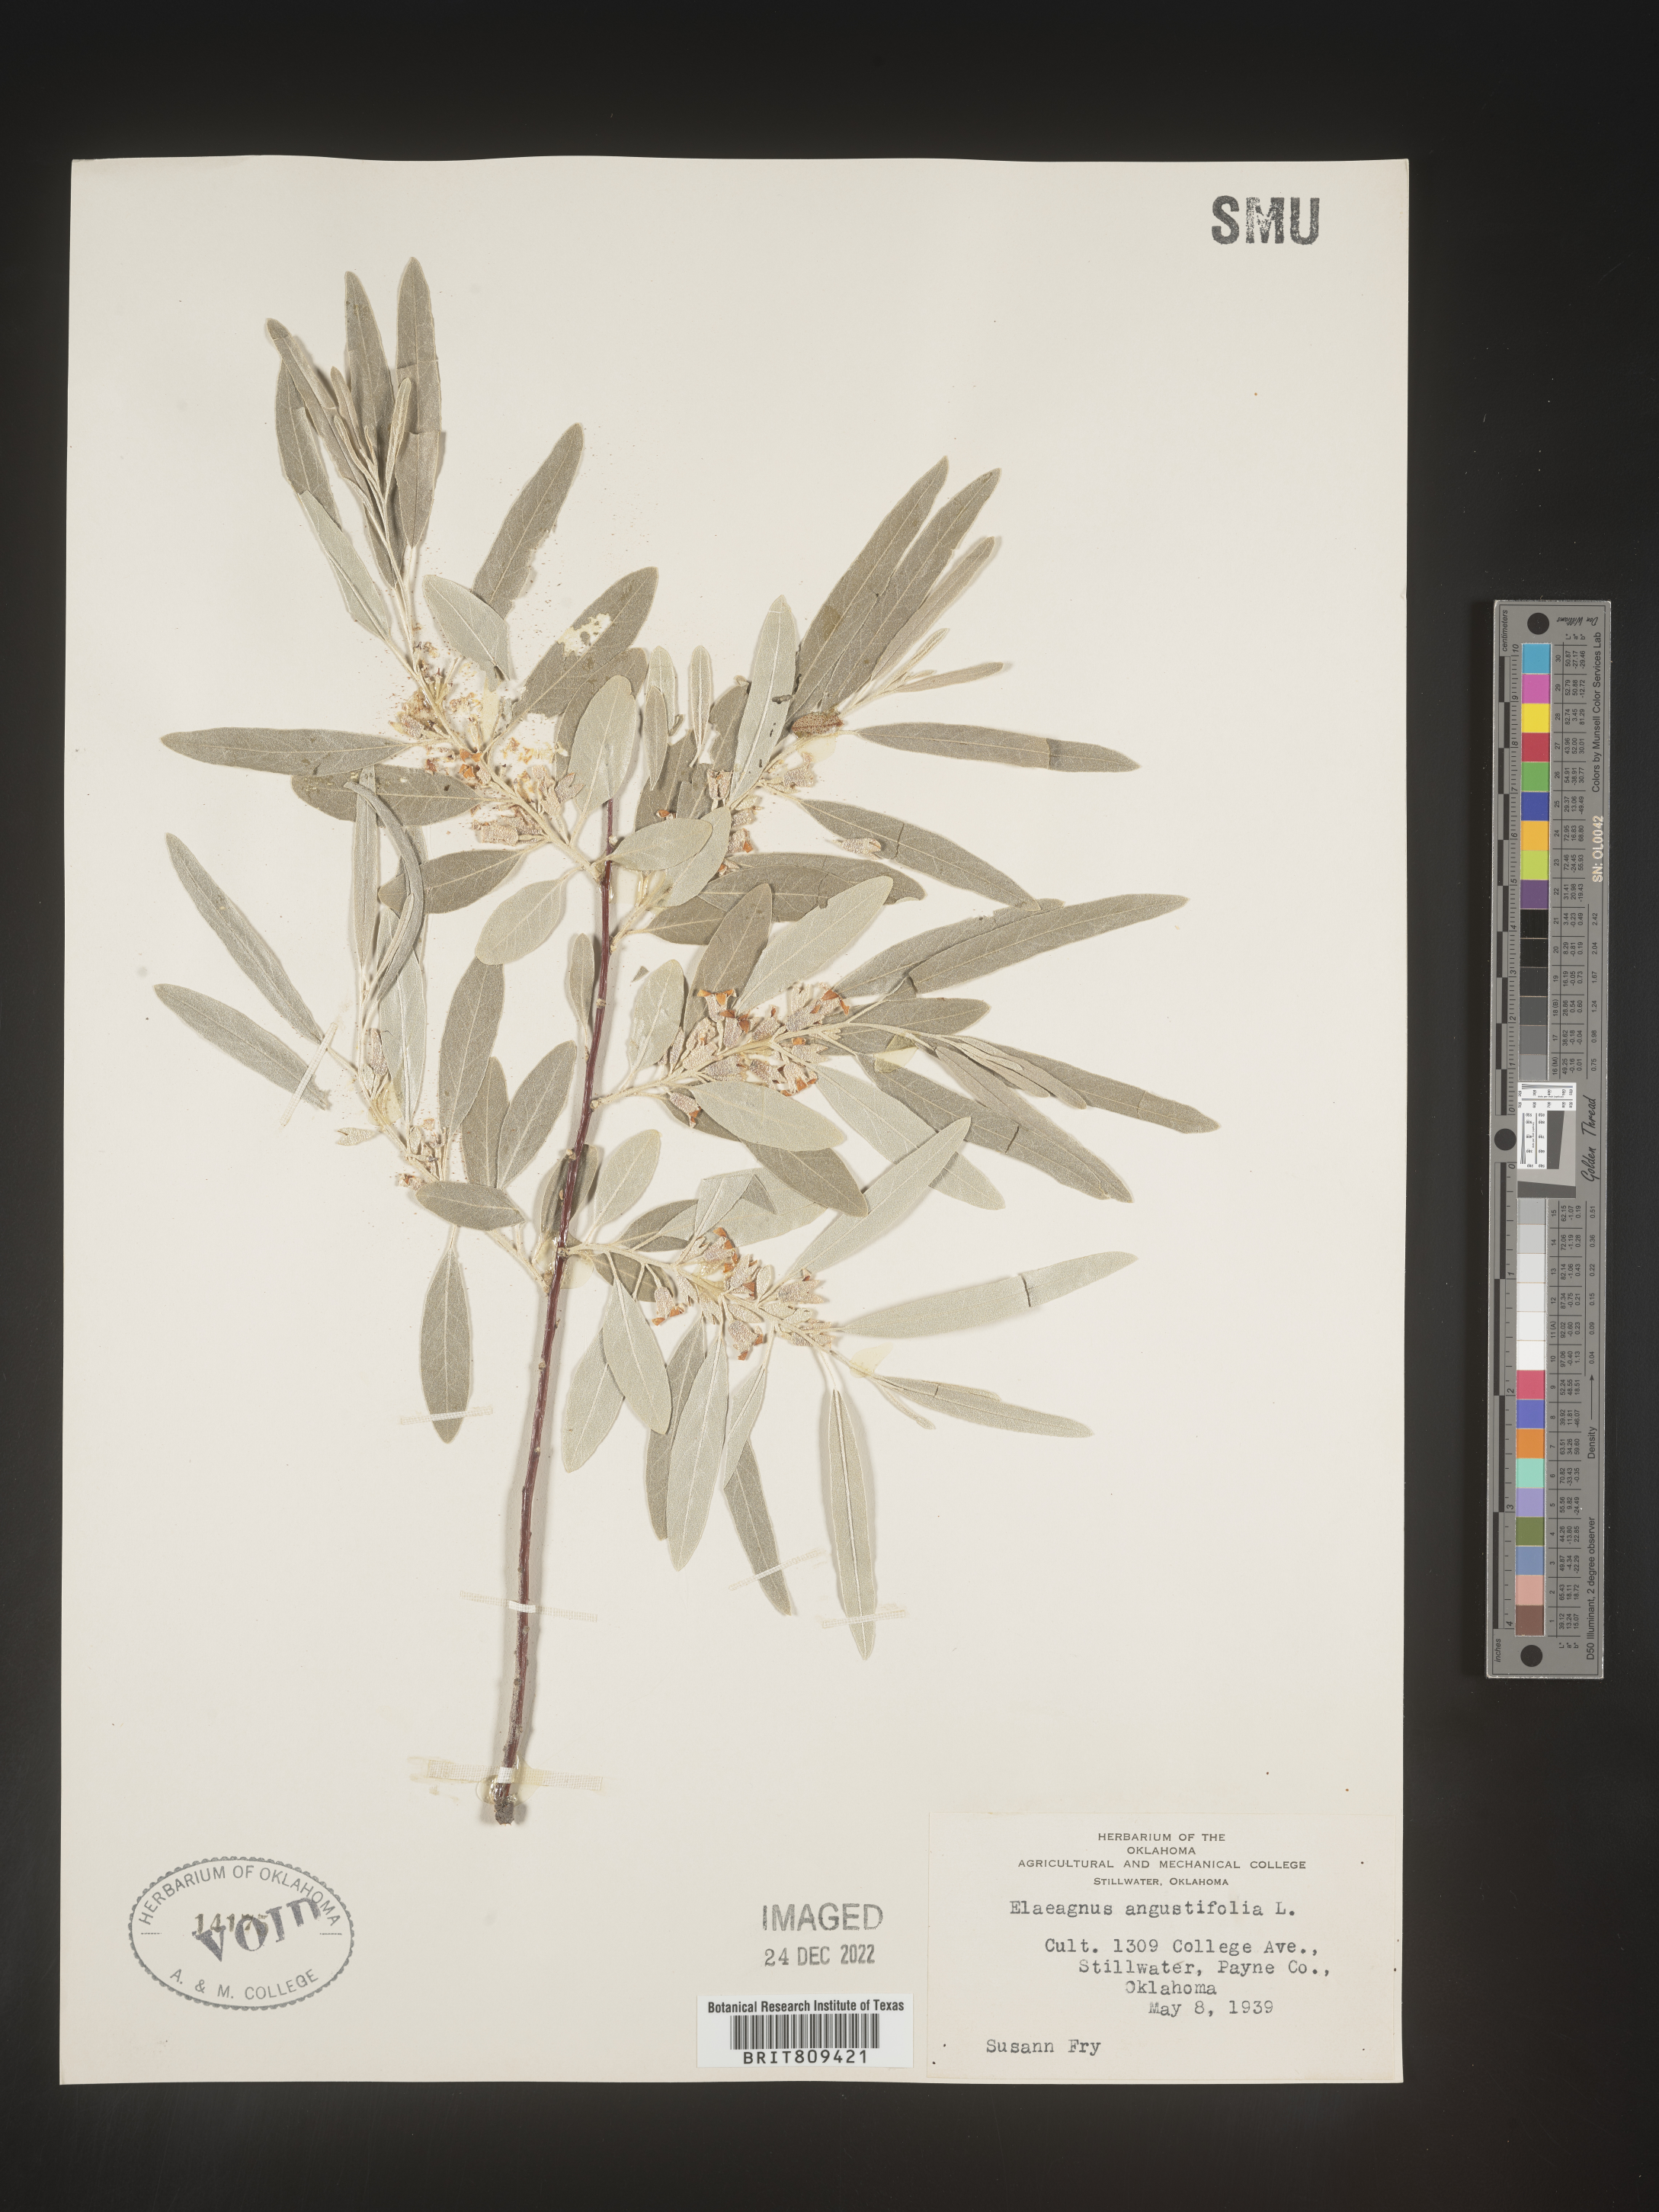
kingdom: Plantae
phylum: Tracheophyta
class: Magnoliopsida
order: Rosales
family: Elaeagnaceae
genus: Elaeagnus
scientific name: Elaeagnus
